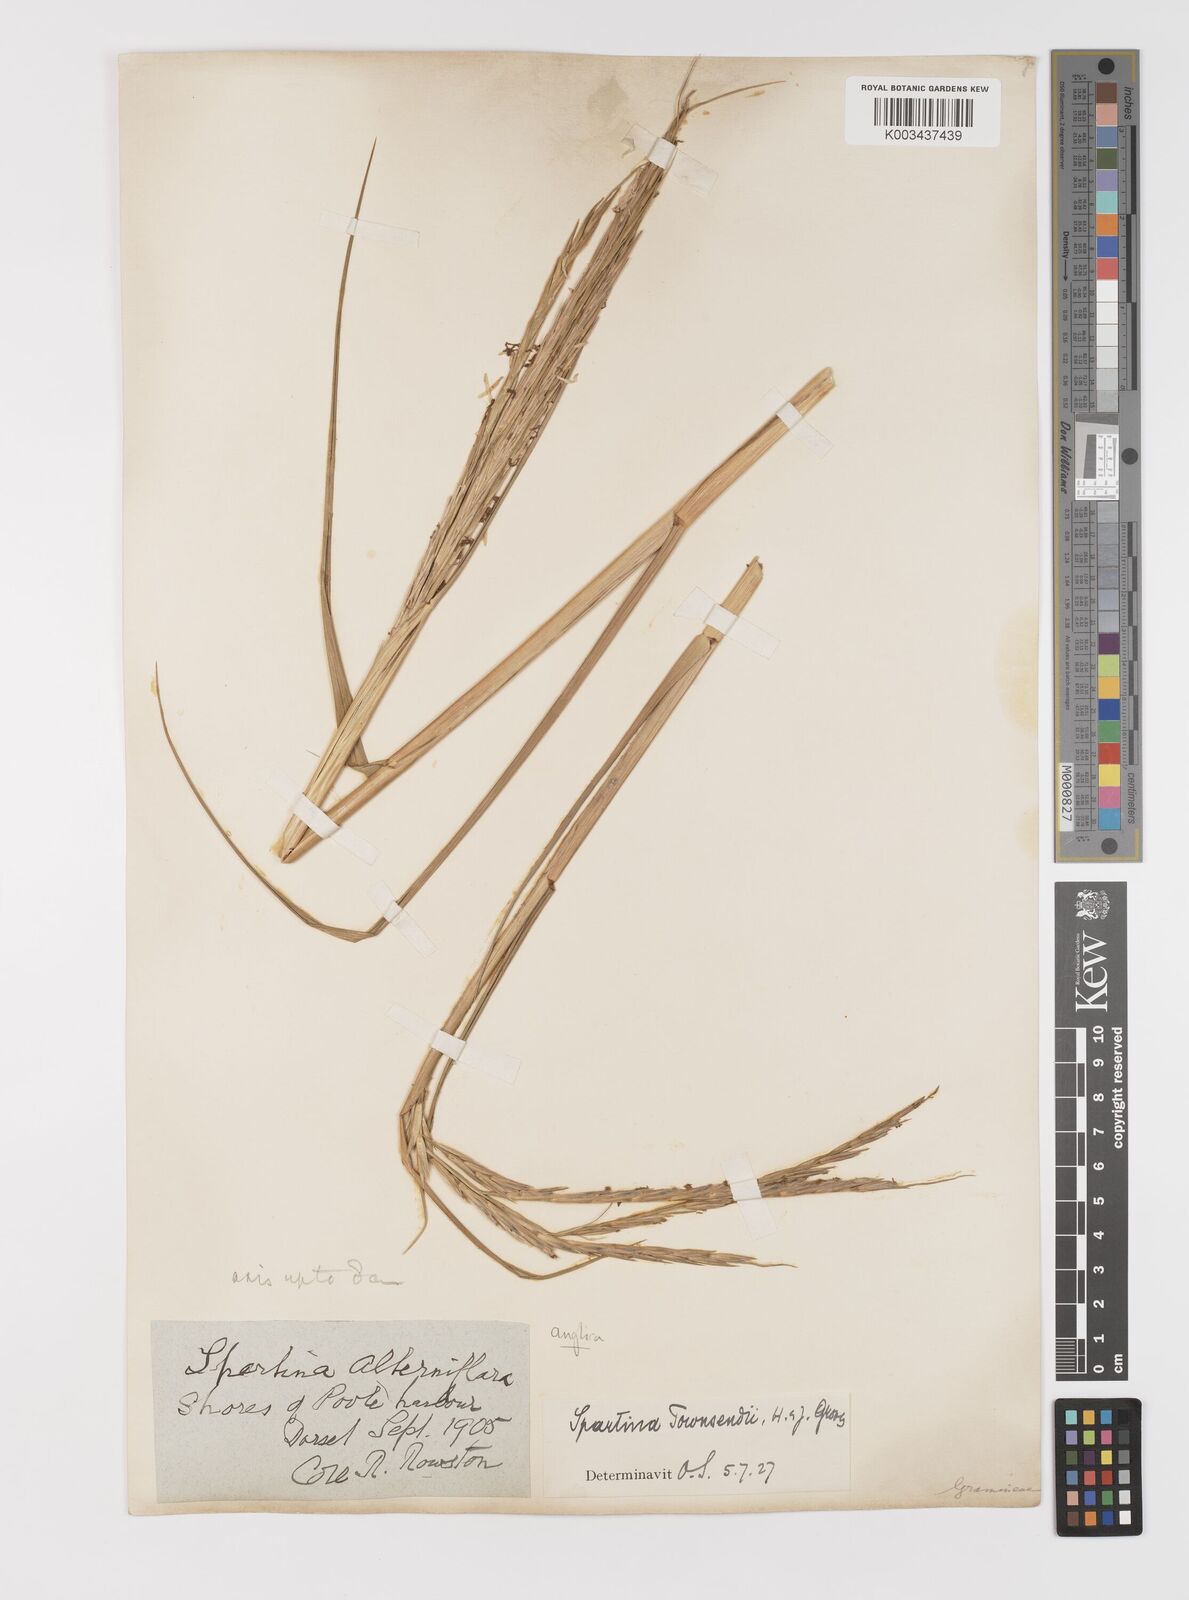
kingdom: Plantae
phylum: Tracheophyta
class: Liliopsida
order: Poales
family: Poaceae
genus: Sporobolus
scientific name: Sporobolus anglicus
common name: English cordgrass
